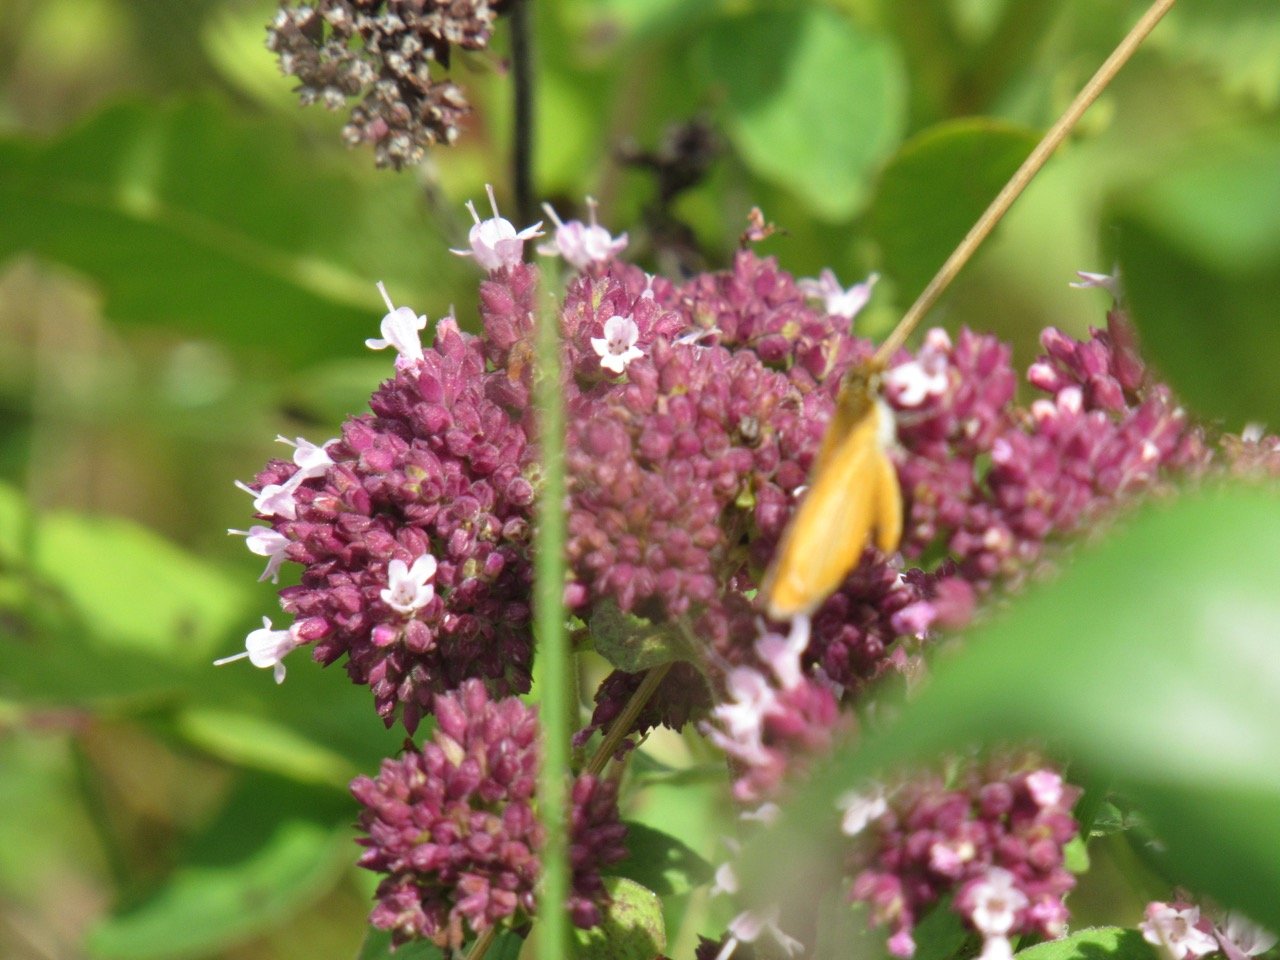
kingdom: Animalia
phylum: Arthropoda
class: Insecta
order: Lepidoptera
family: Hesperiidae
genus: Ancyloxypha
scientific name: Ancyloxypha numitor
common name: Least Skipper
